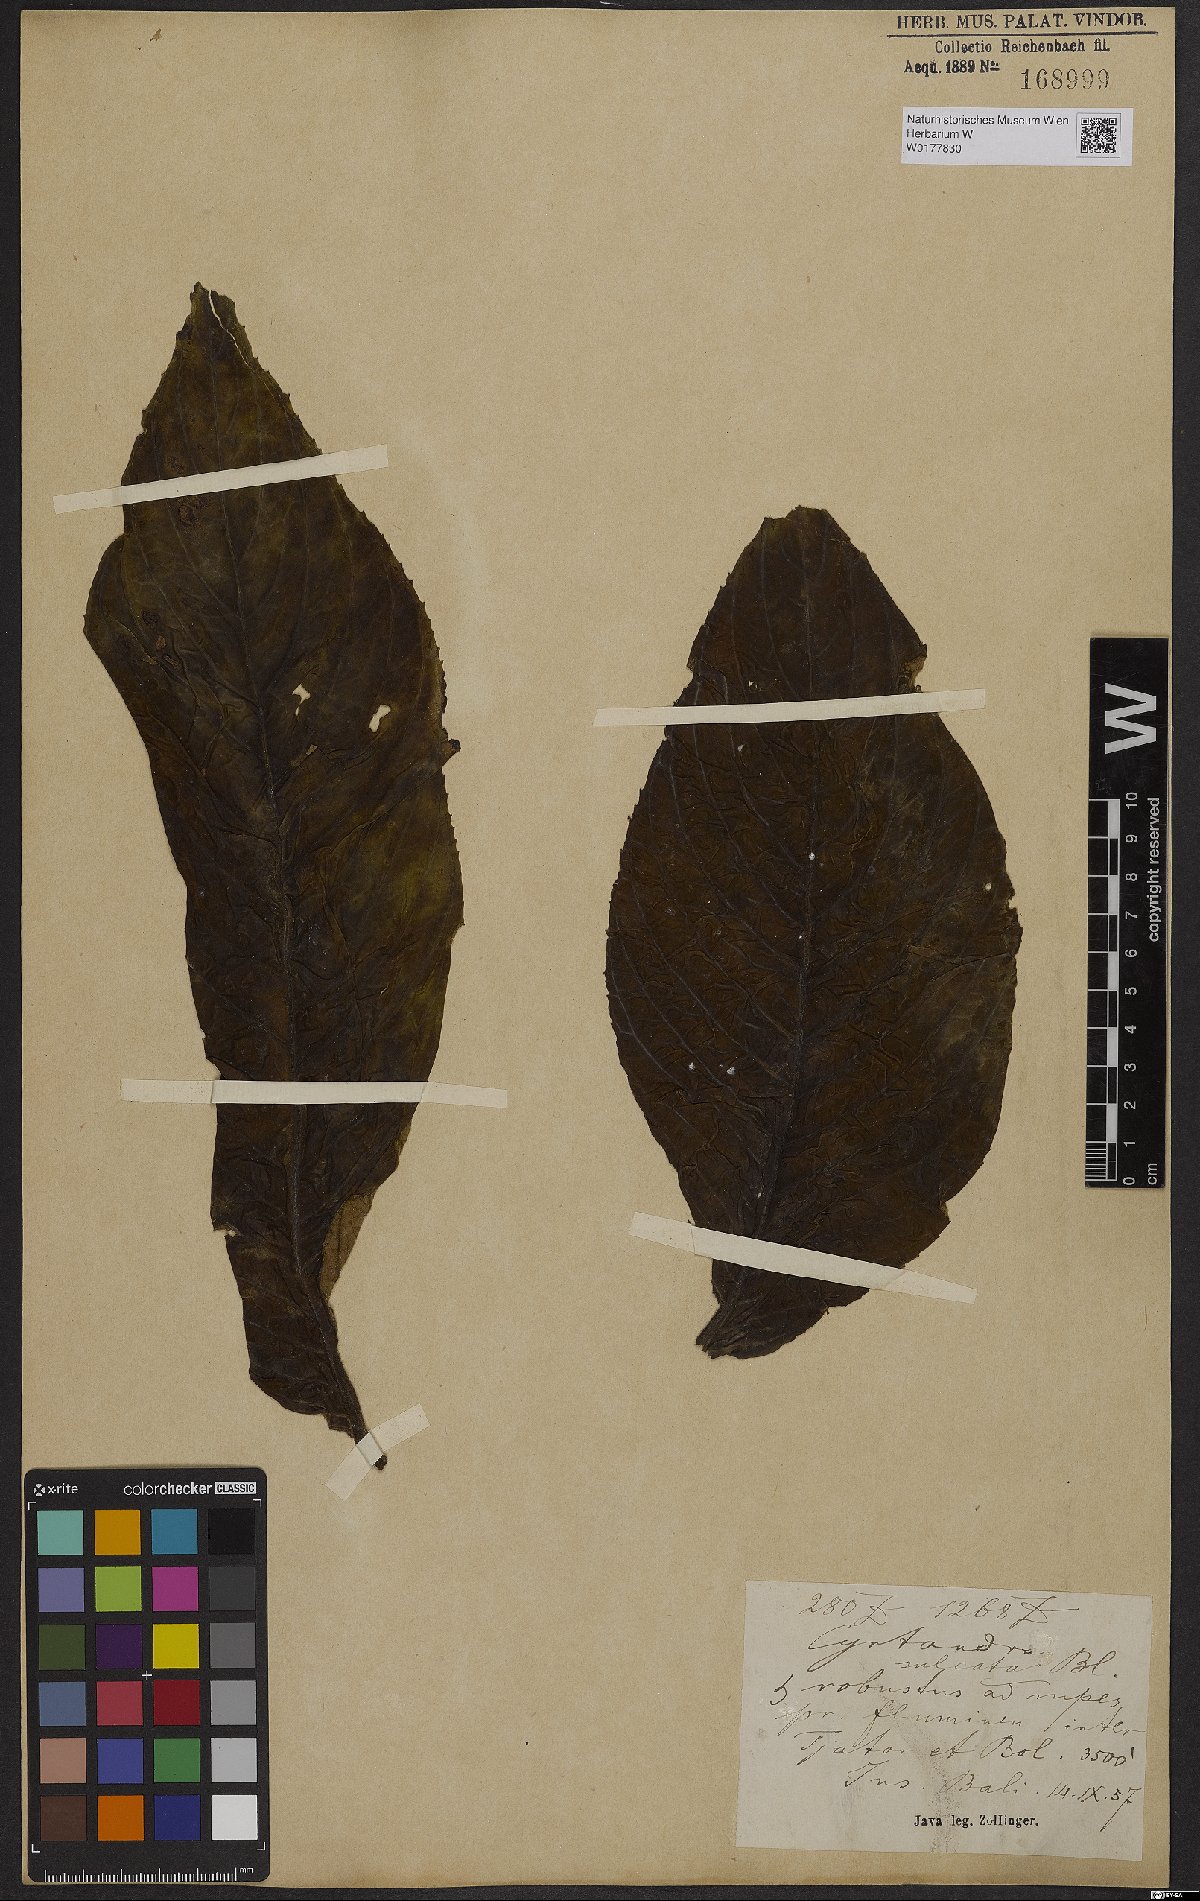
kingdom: Plantae
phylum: Tracheophyta
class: Magnoliopsida
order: Lamiales
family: Gesneriaceae
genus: Cyrtandra
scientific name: Cyrtandra
